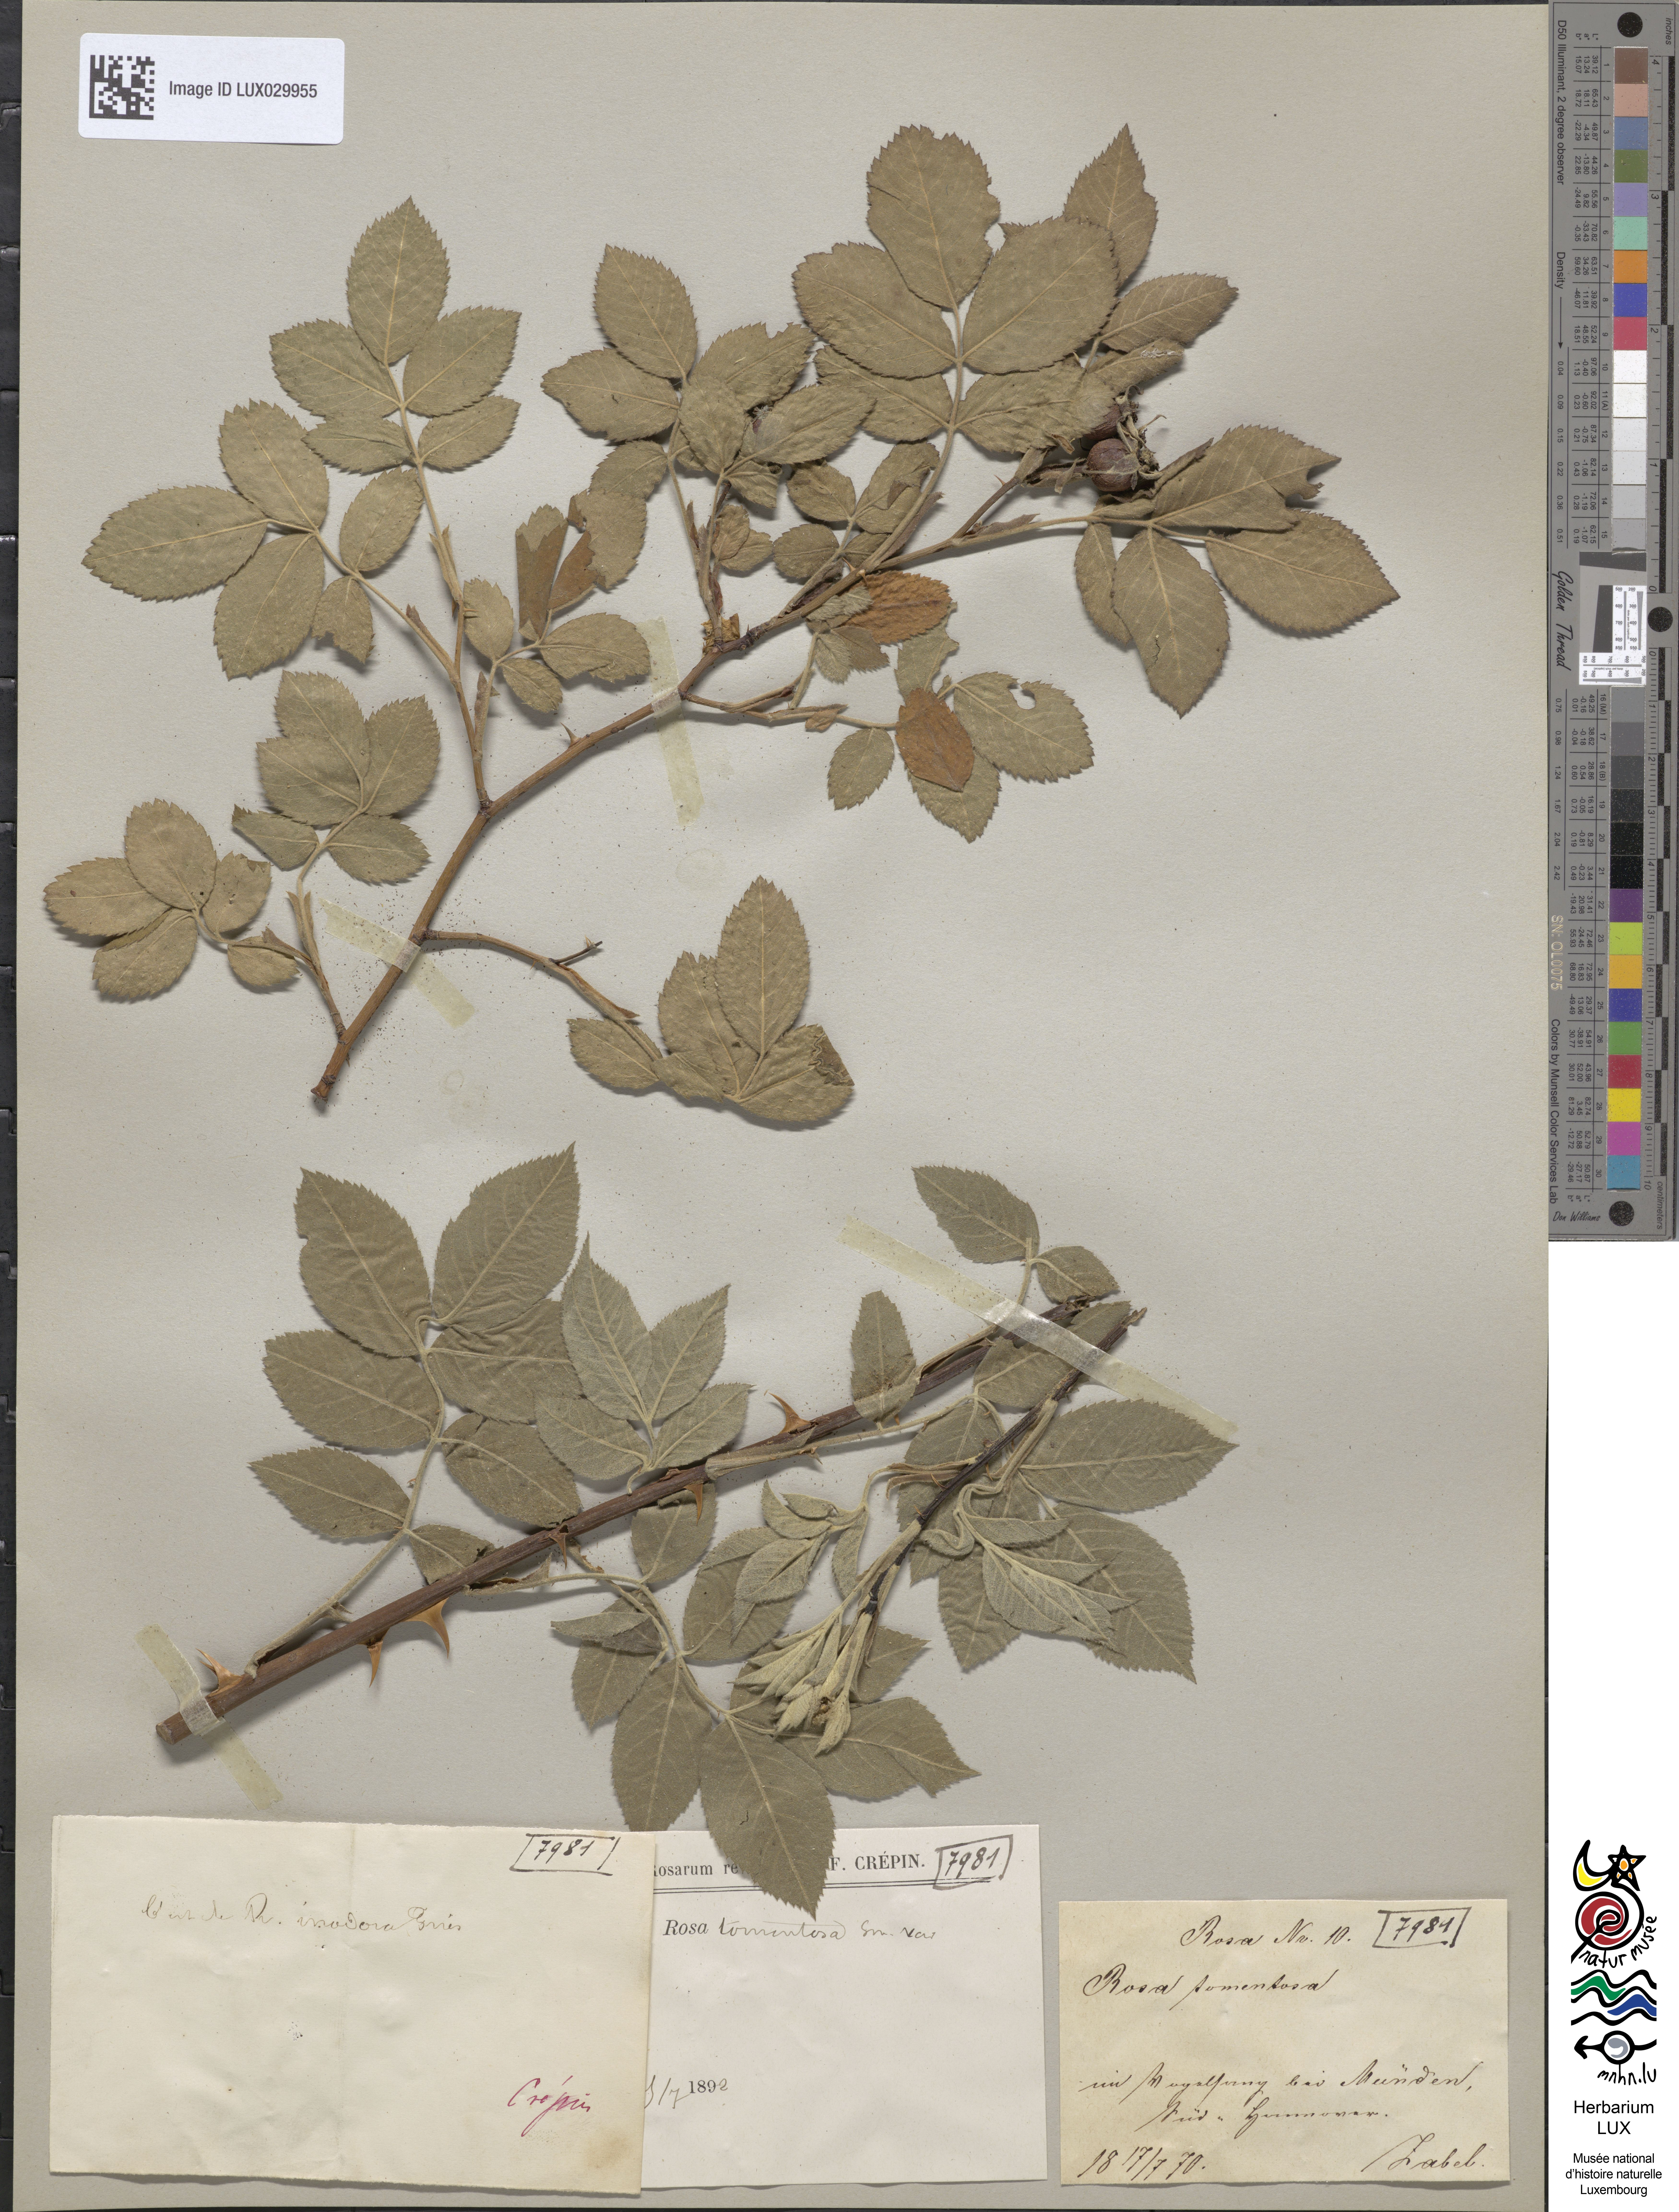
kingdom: Plantae
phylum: Tracheophyta
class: Magnoliopsida
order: Rosales
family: Rosaceae
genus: Rosa
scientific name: Rosa tomentosa
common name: Downy rose
